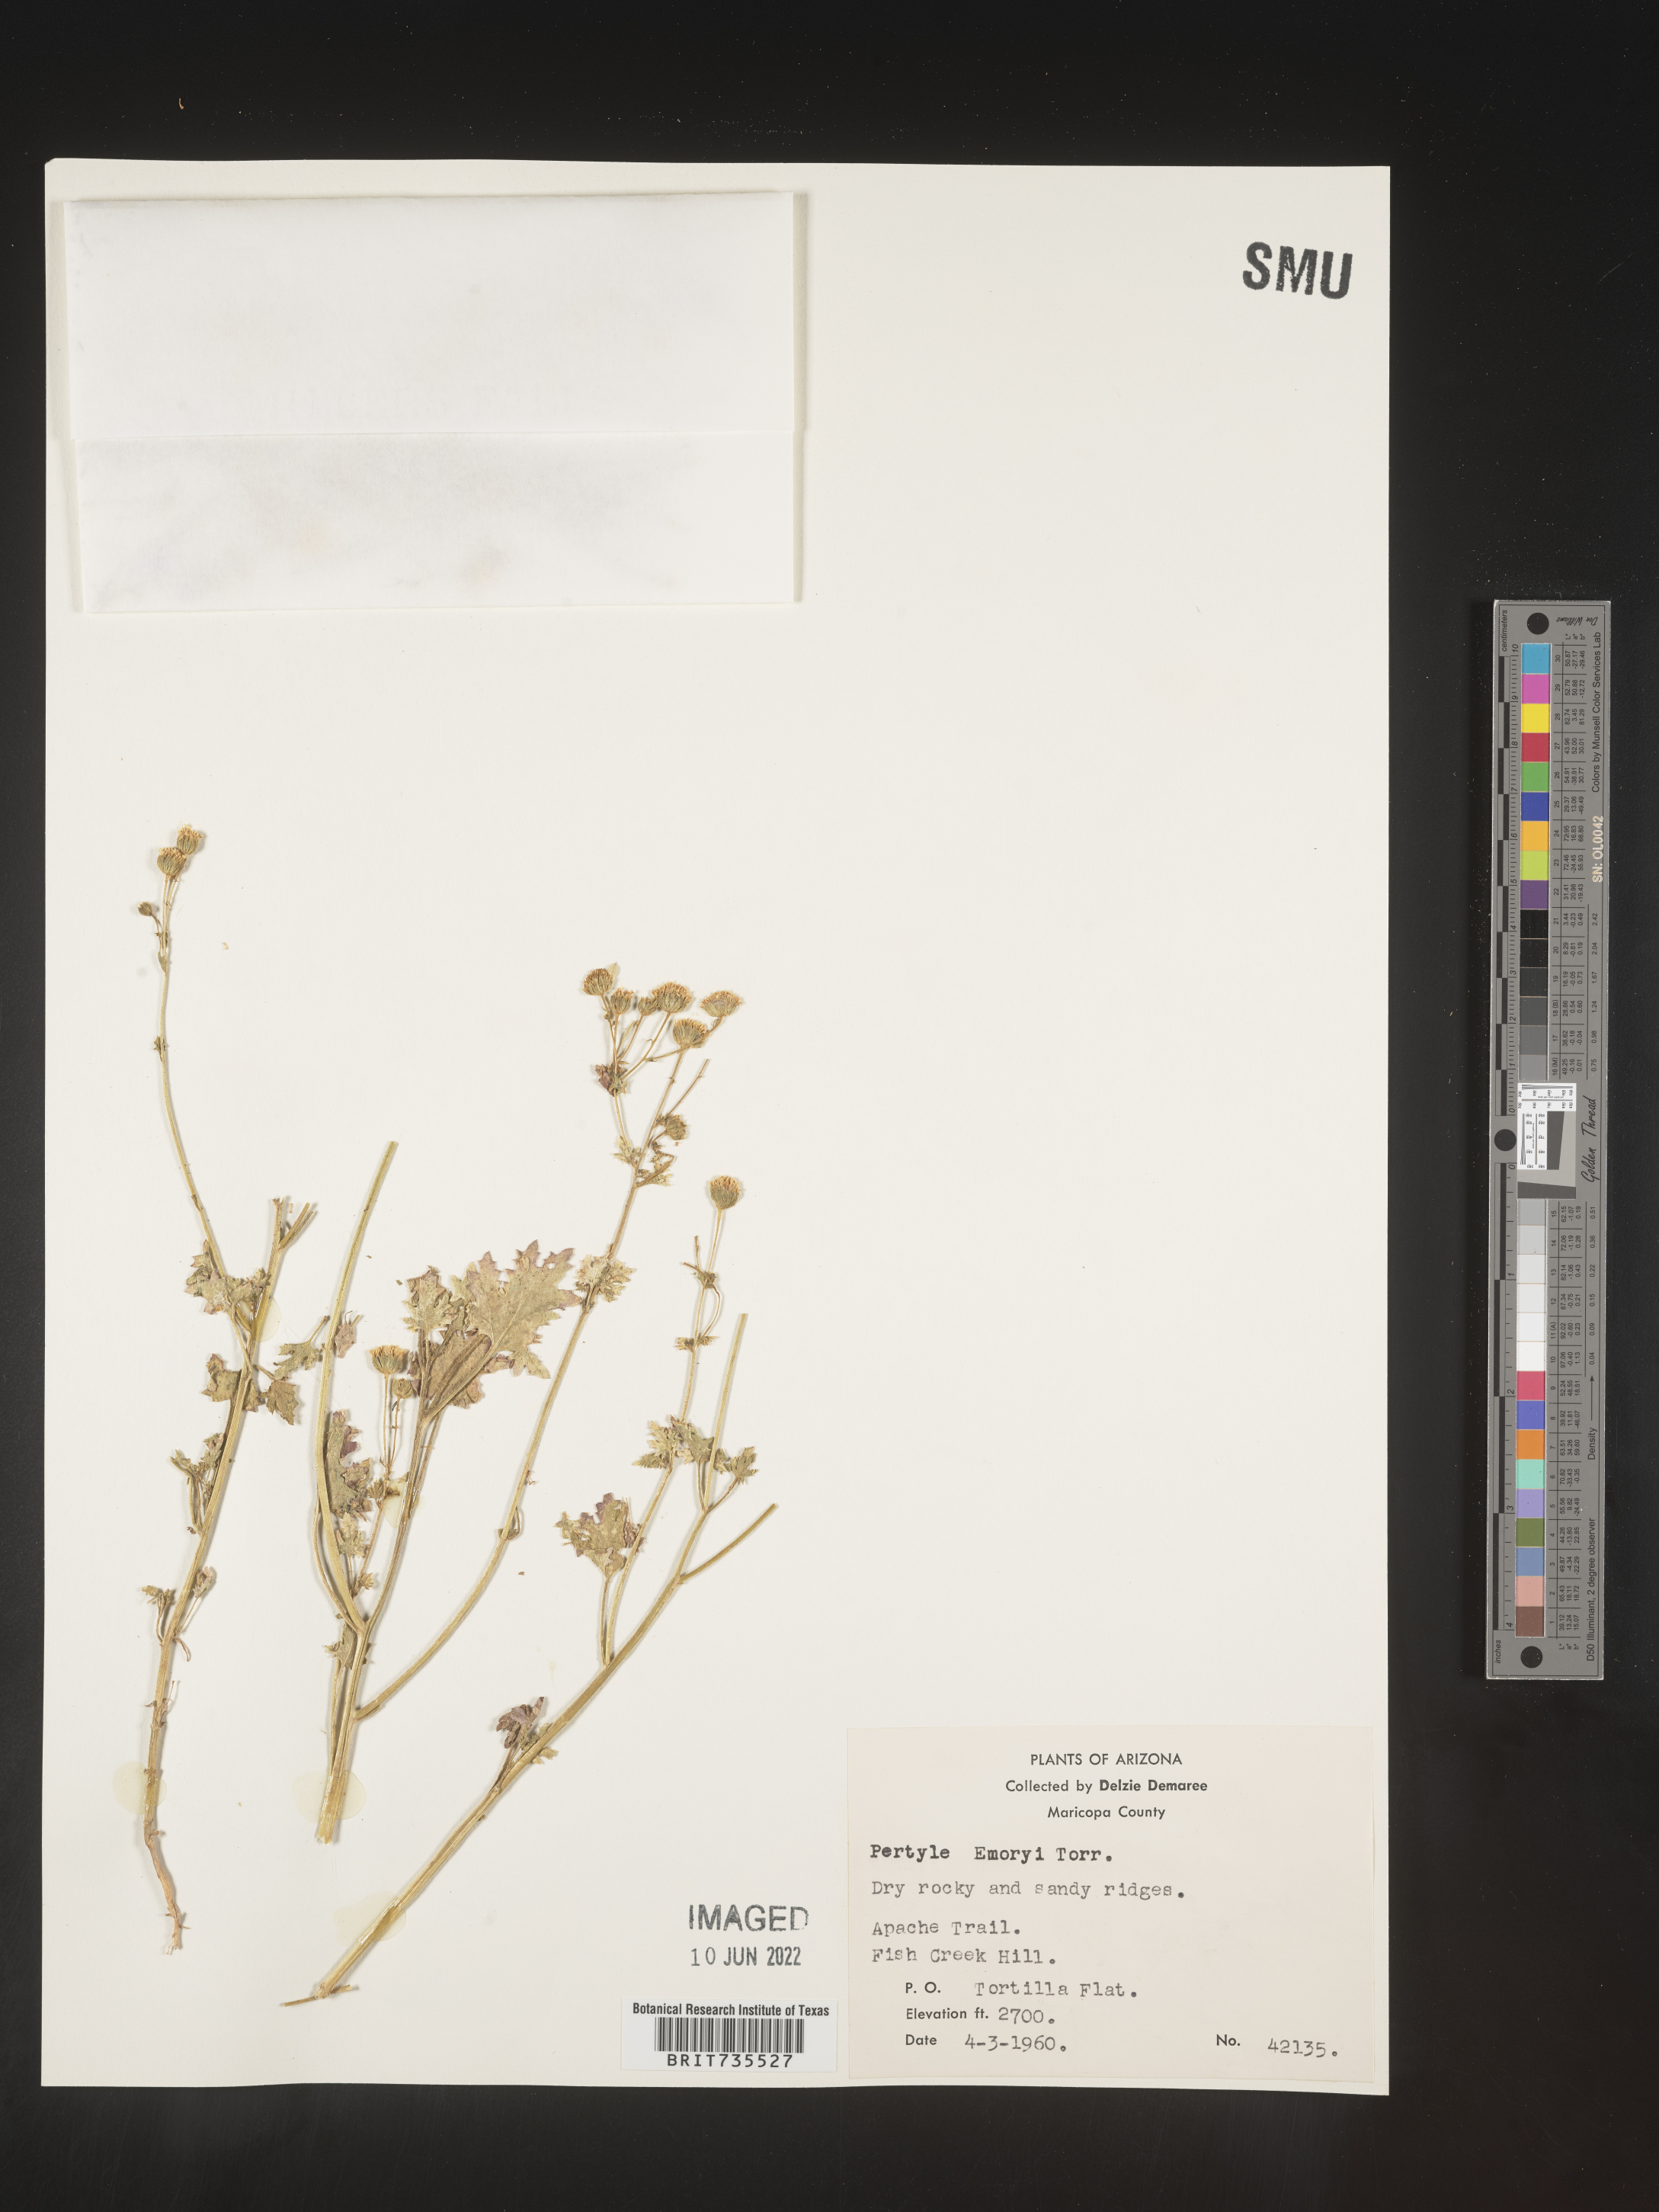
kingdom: Plantae
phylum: Tracheophyta
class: Magnoliopsida
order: Asterales
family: Asteraceae
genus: Perityle
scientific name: Perityle
